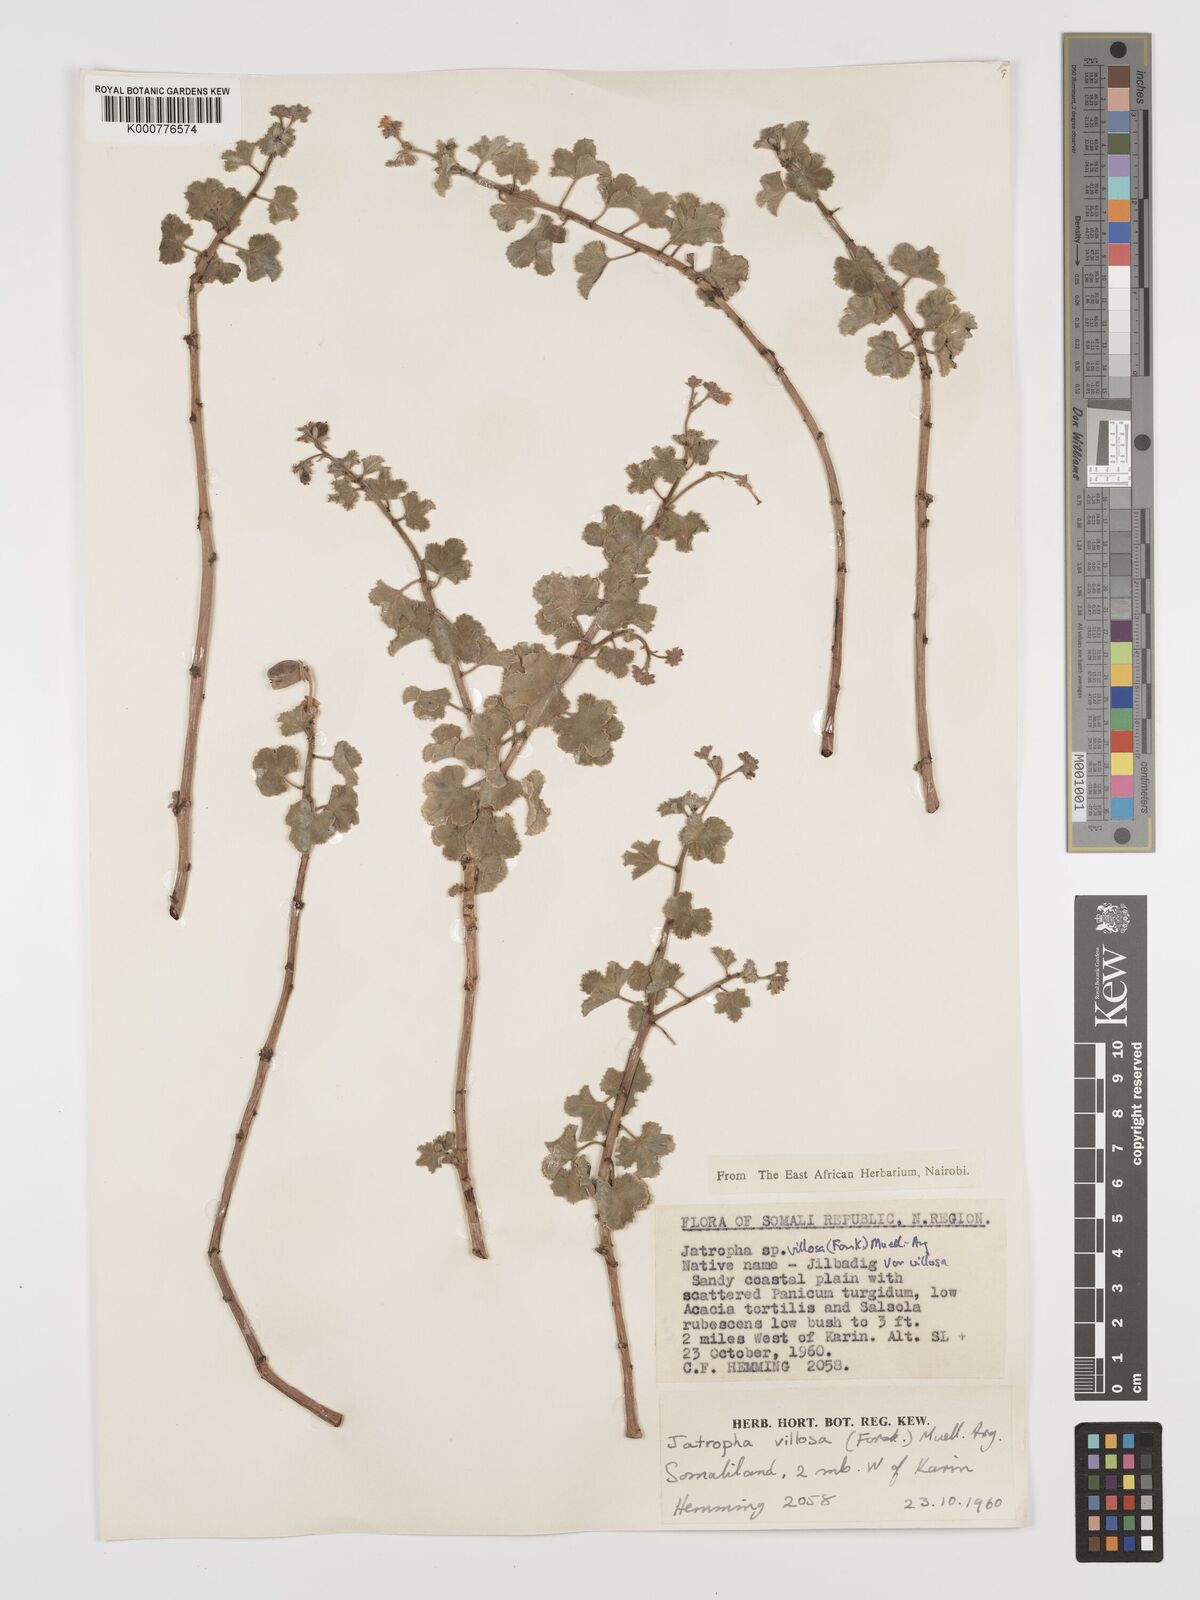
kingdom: Plantae
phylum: Tracheophyta
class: Magnoliopsida
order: Malpighiales
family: Euphorbiaceae
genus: Jatropha
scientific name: Jatropha pelargoniifolia
